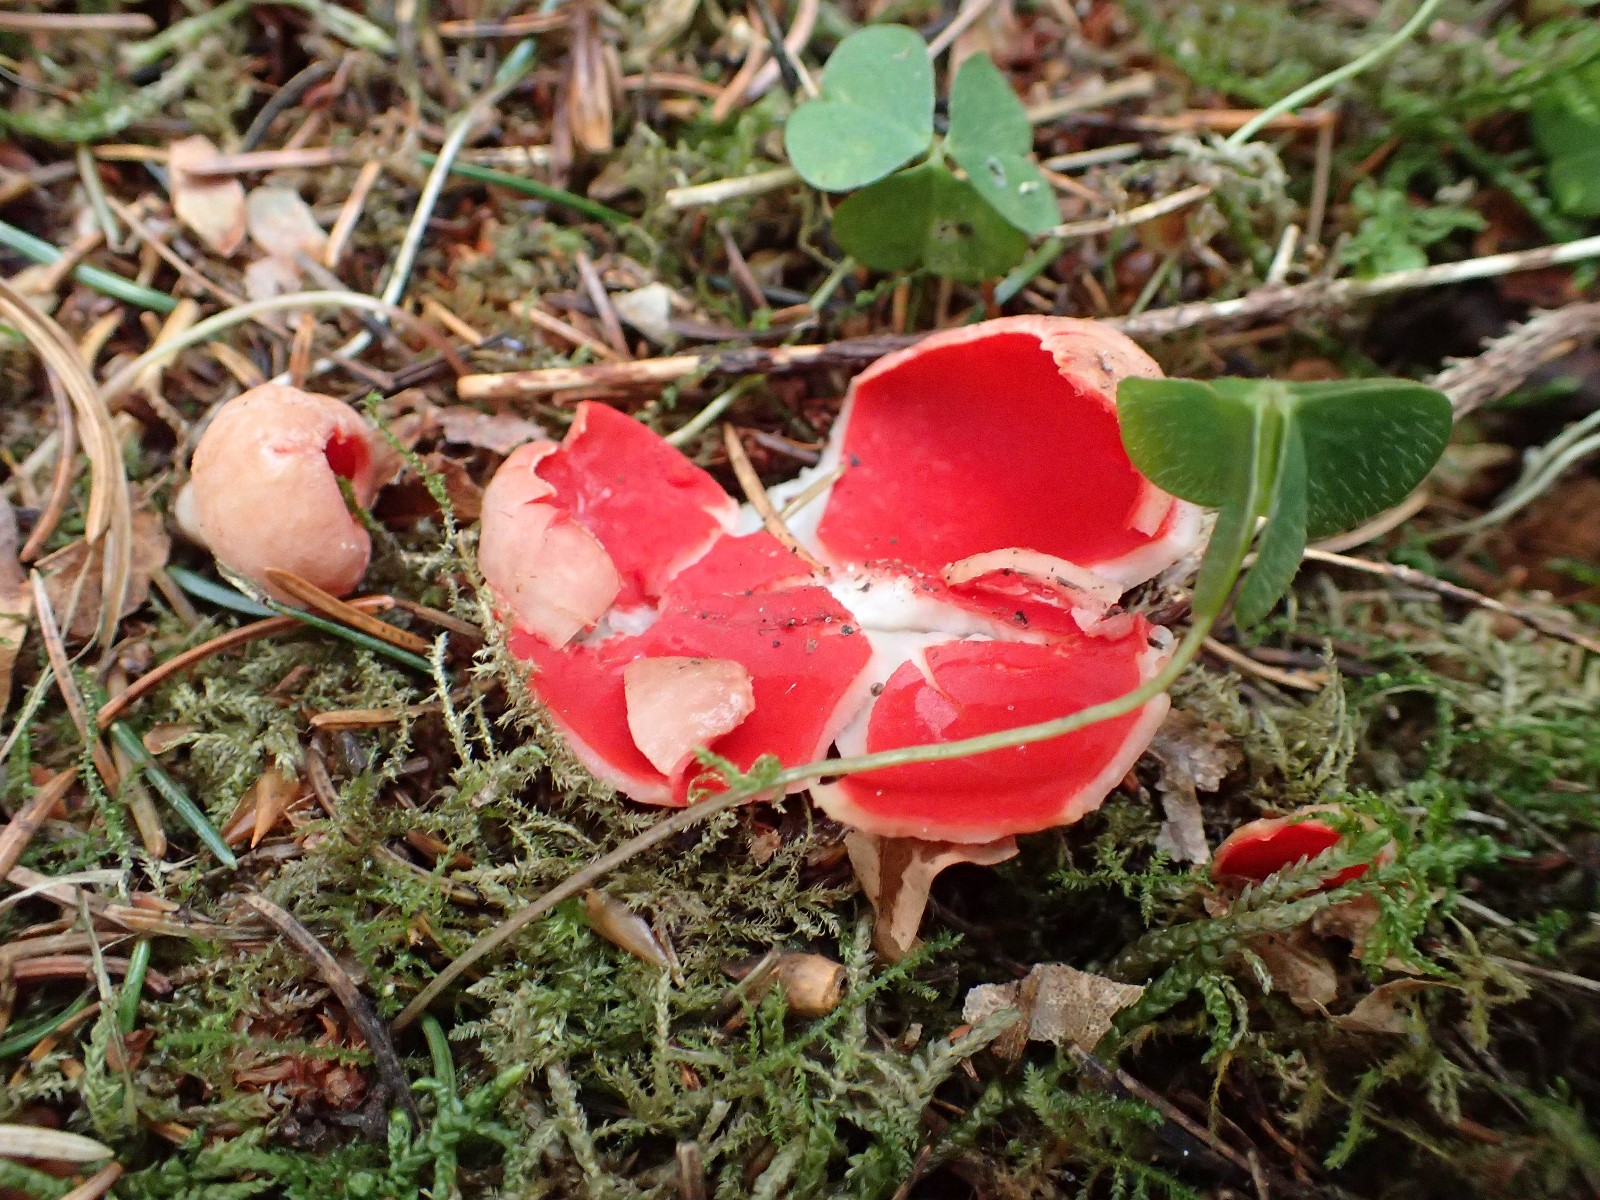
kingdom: Fungi
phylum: Ascomycota
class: Pezizomycetes
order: Pezizales
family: Sarcoscyphaceae
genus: Sarcoscypha
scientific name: Sarcoscypha austriaca
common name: krølhåret pragtbæger
